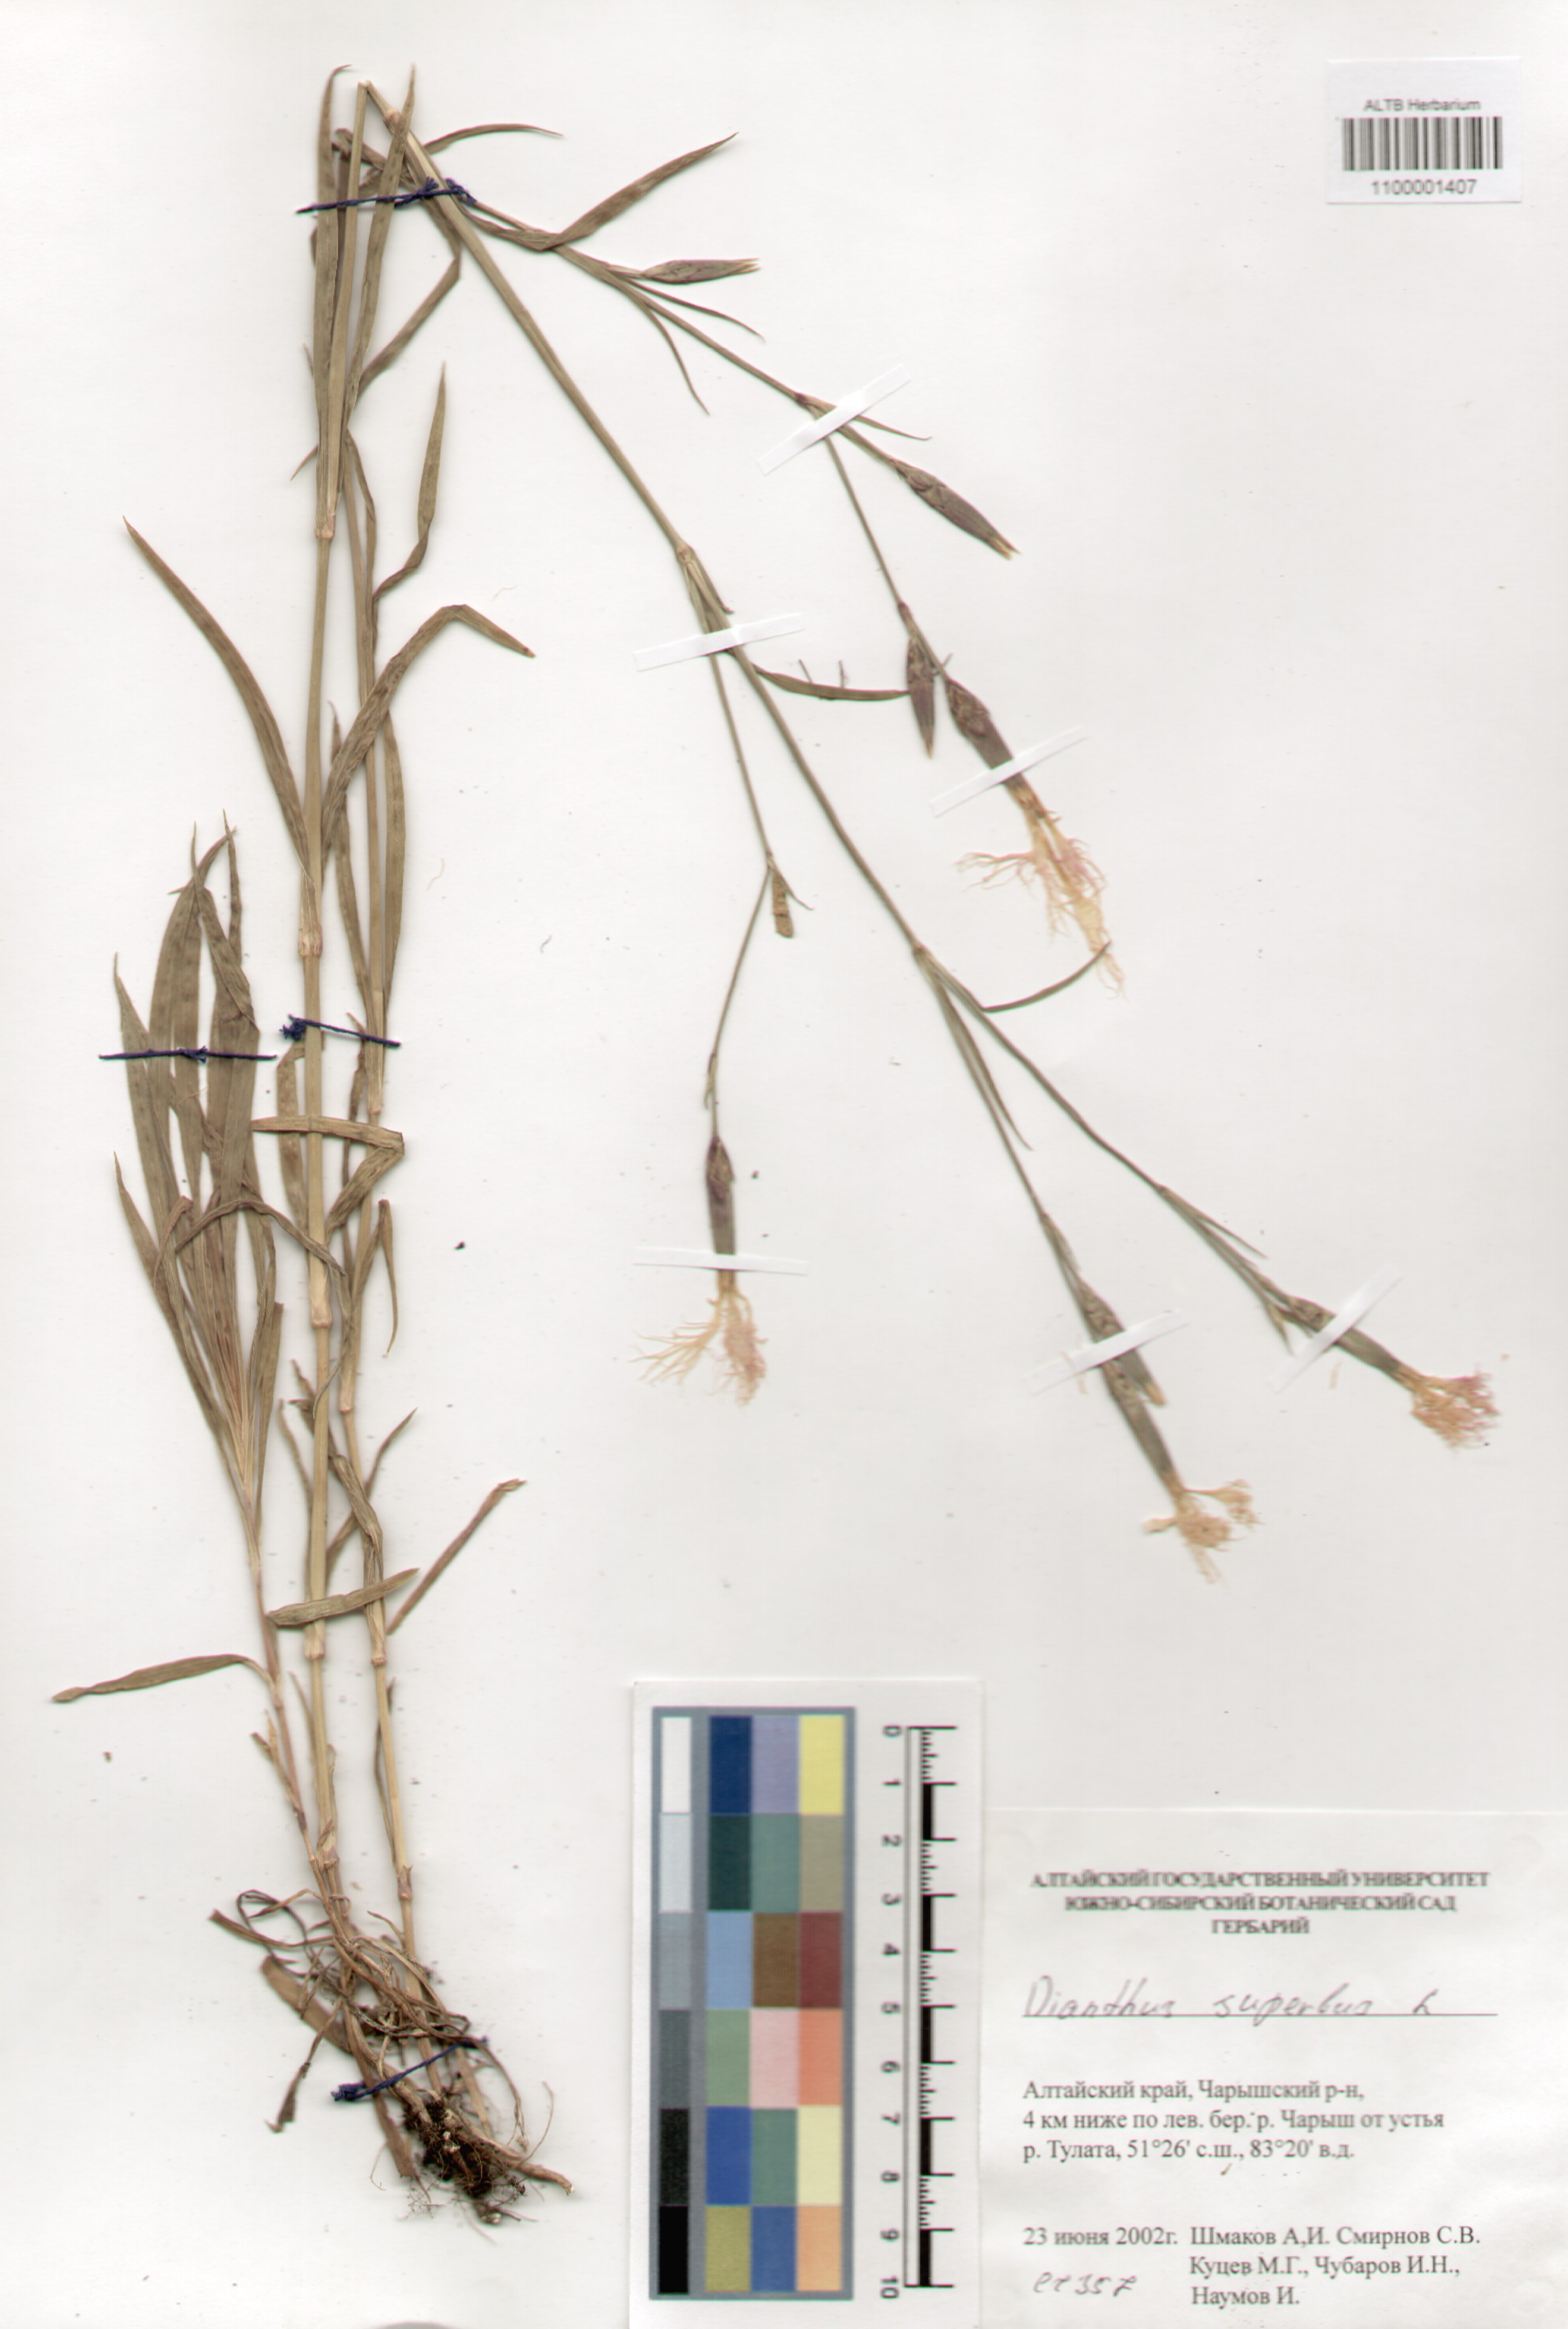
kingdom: Plantae
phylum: Tracheophyta
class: Magnoliopsida
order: Caryophyllales
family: Caryophyllaceae
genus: Dianthus
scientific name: Dianthus superbus
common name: Fringed pink
